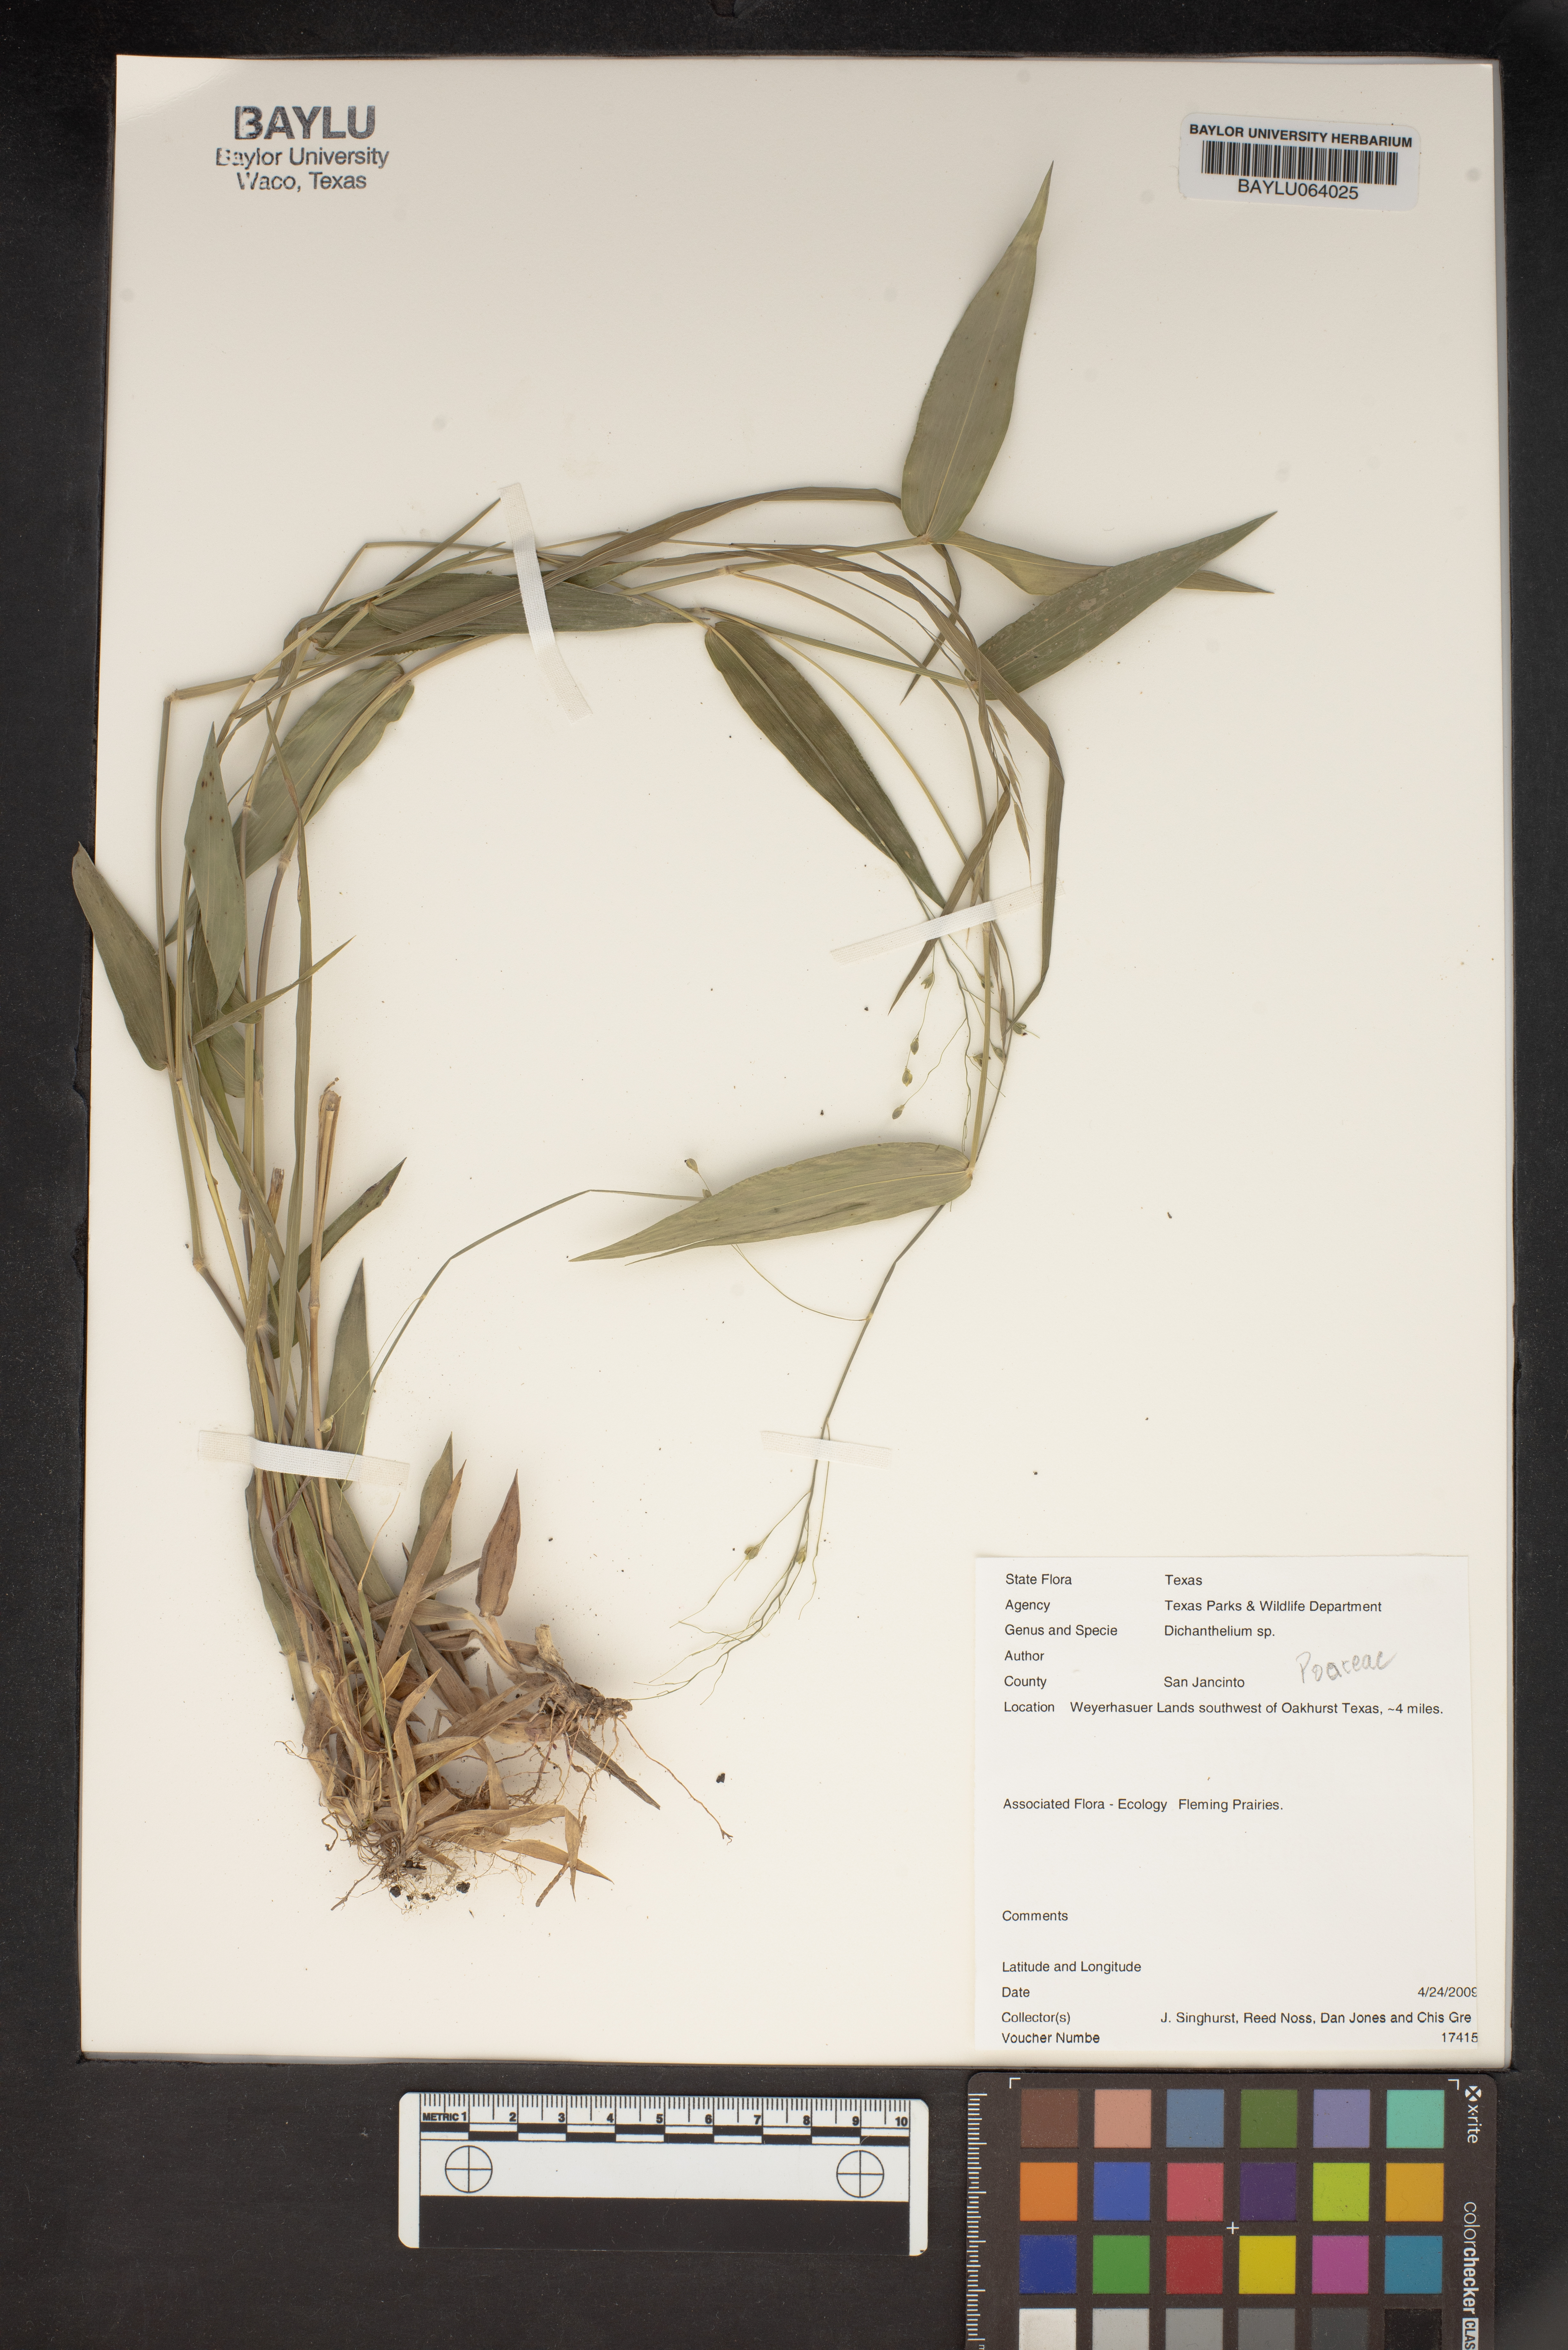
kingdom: Plantae
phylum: Tracheophyta
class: Liliopsida
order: Poales
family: Poaceae
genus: Dichanthelium
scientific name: Dichanthelium
